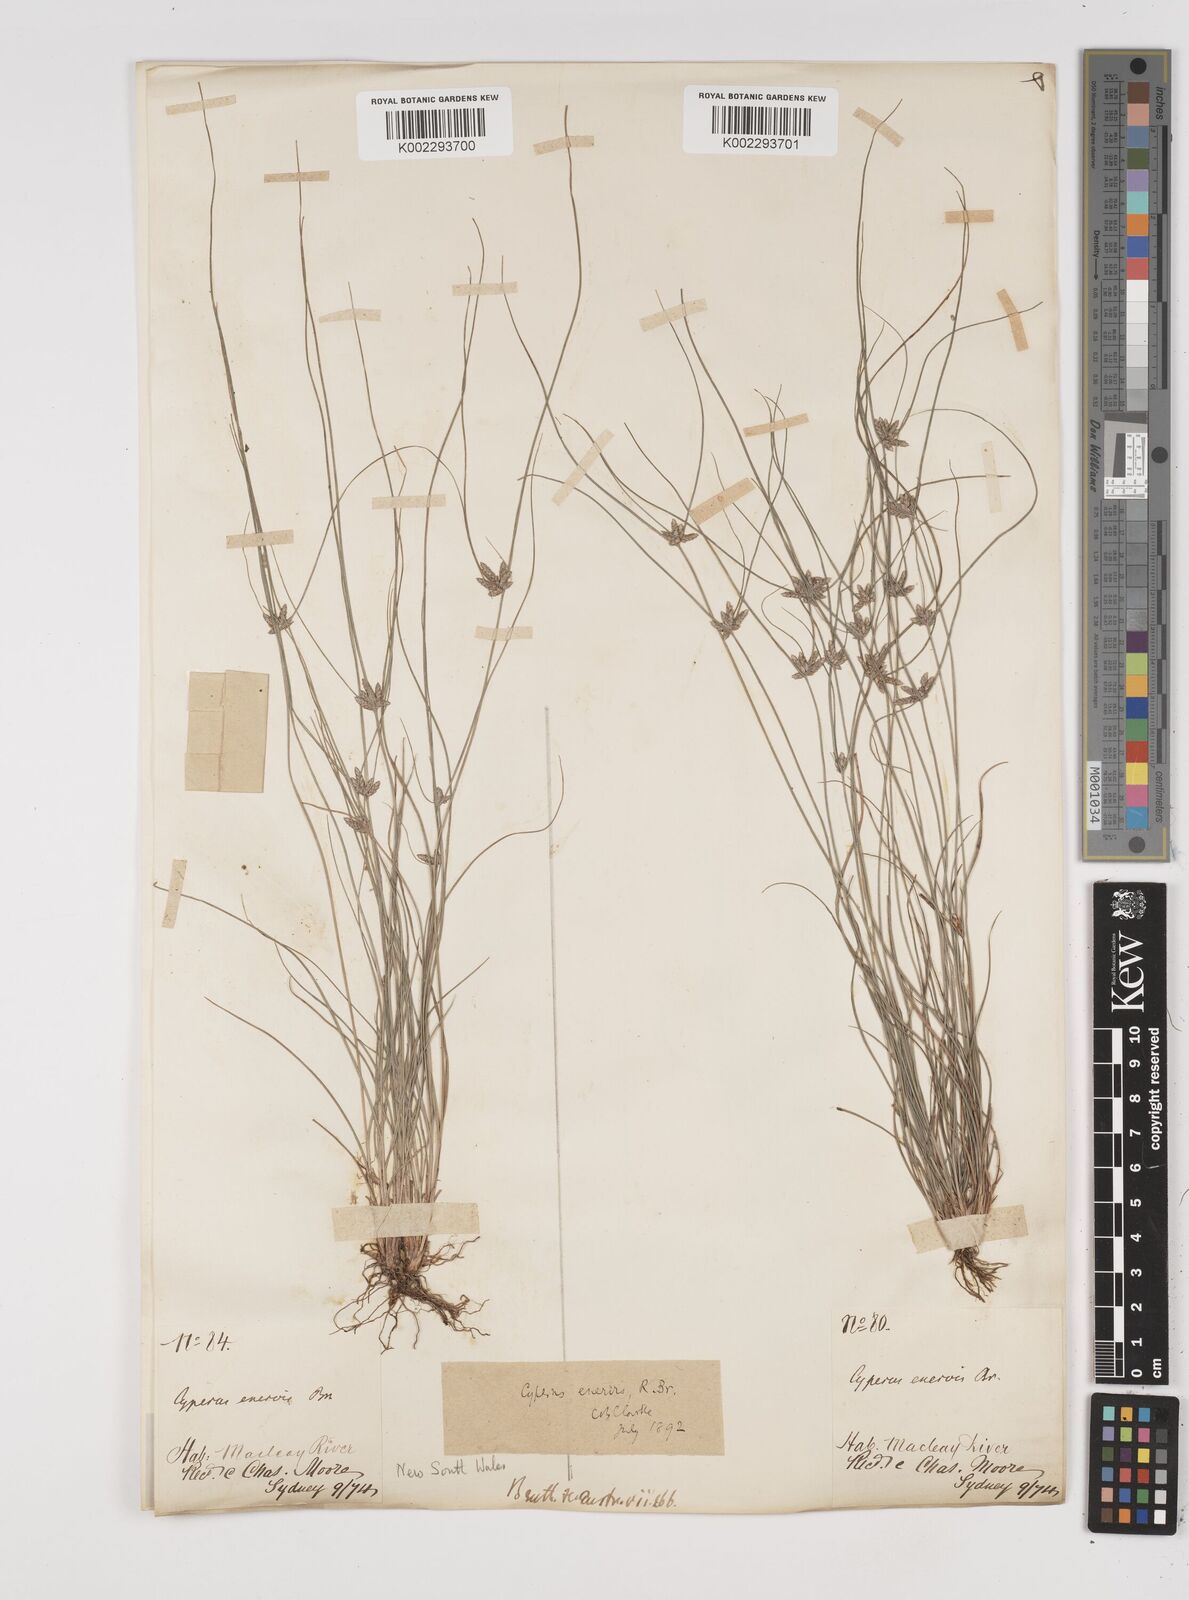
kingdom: Plantae
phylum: Tracheophyta
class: Liliopsida
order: Poales
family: Cyperaceae
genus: Cyperus
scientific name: Cyperus enervis
